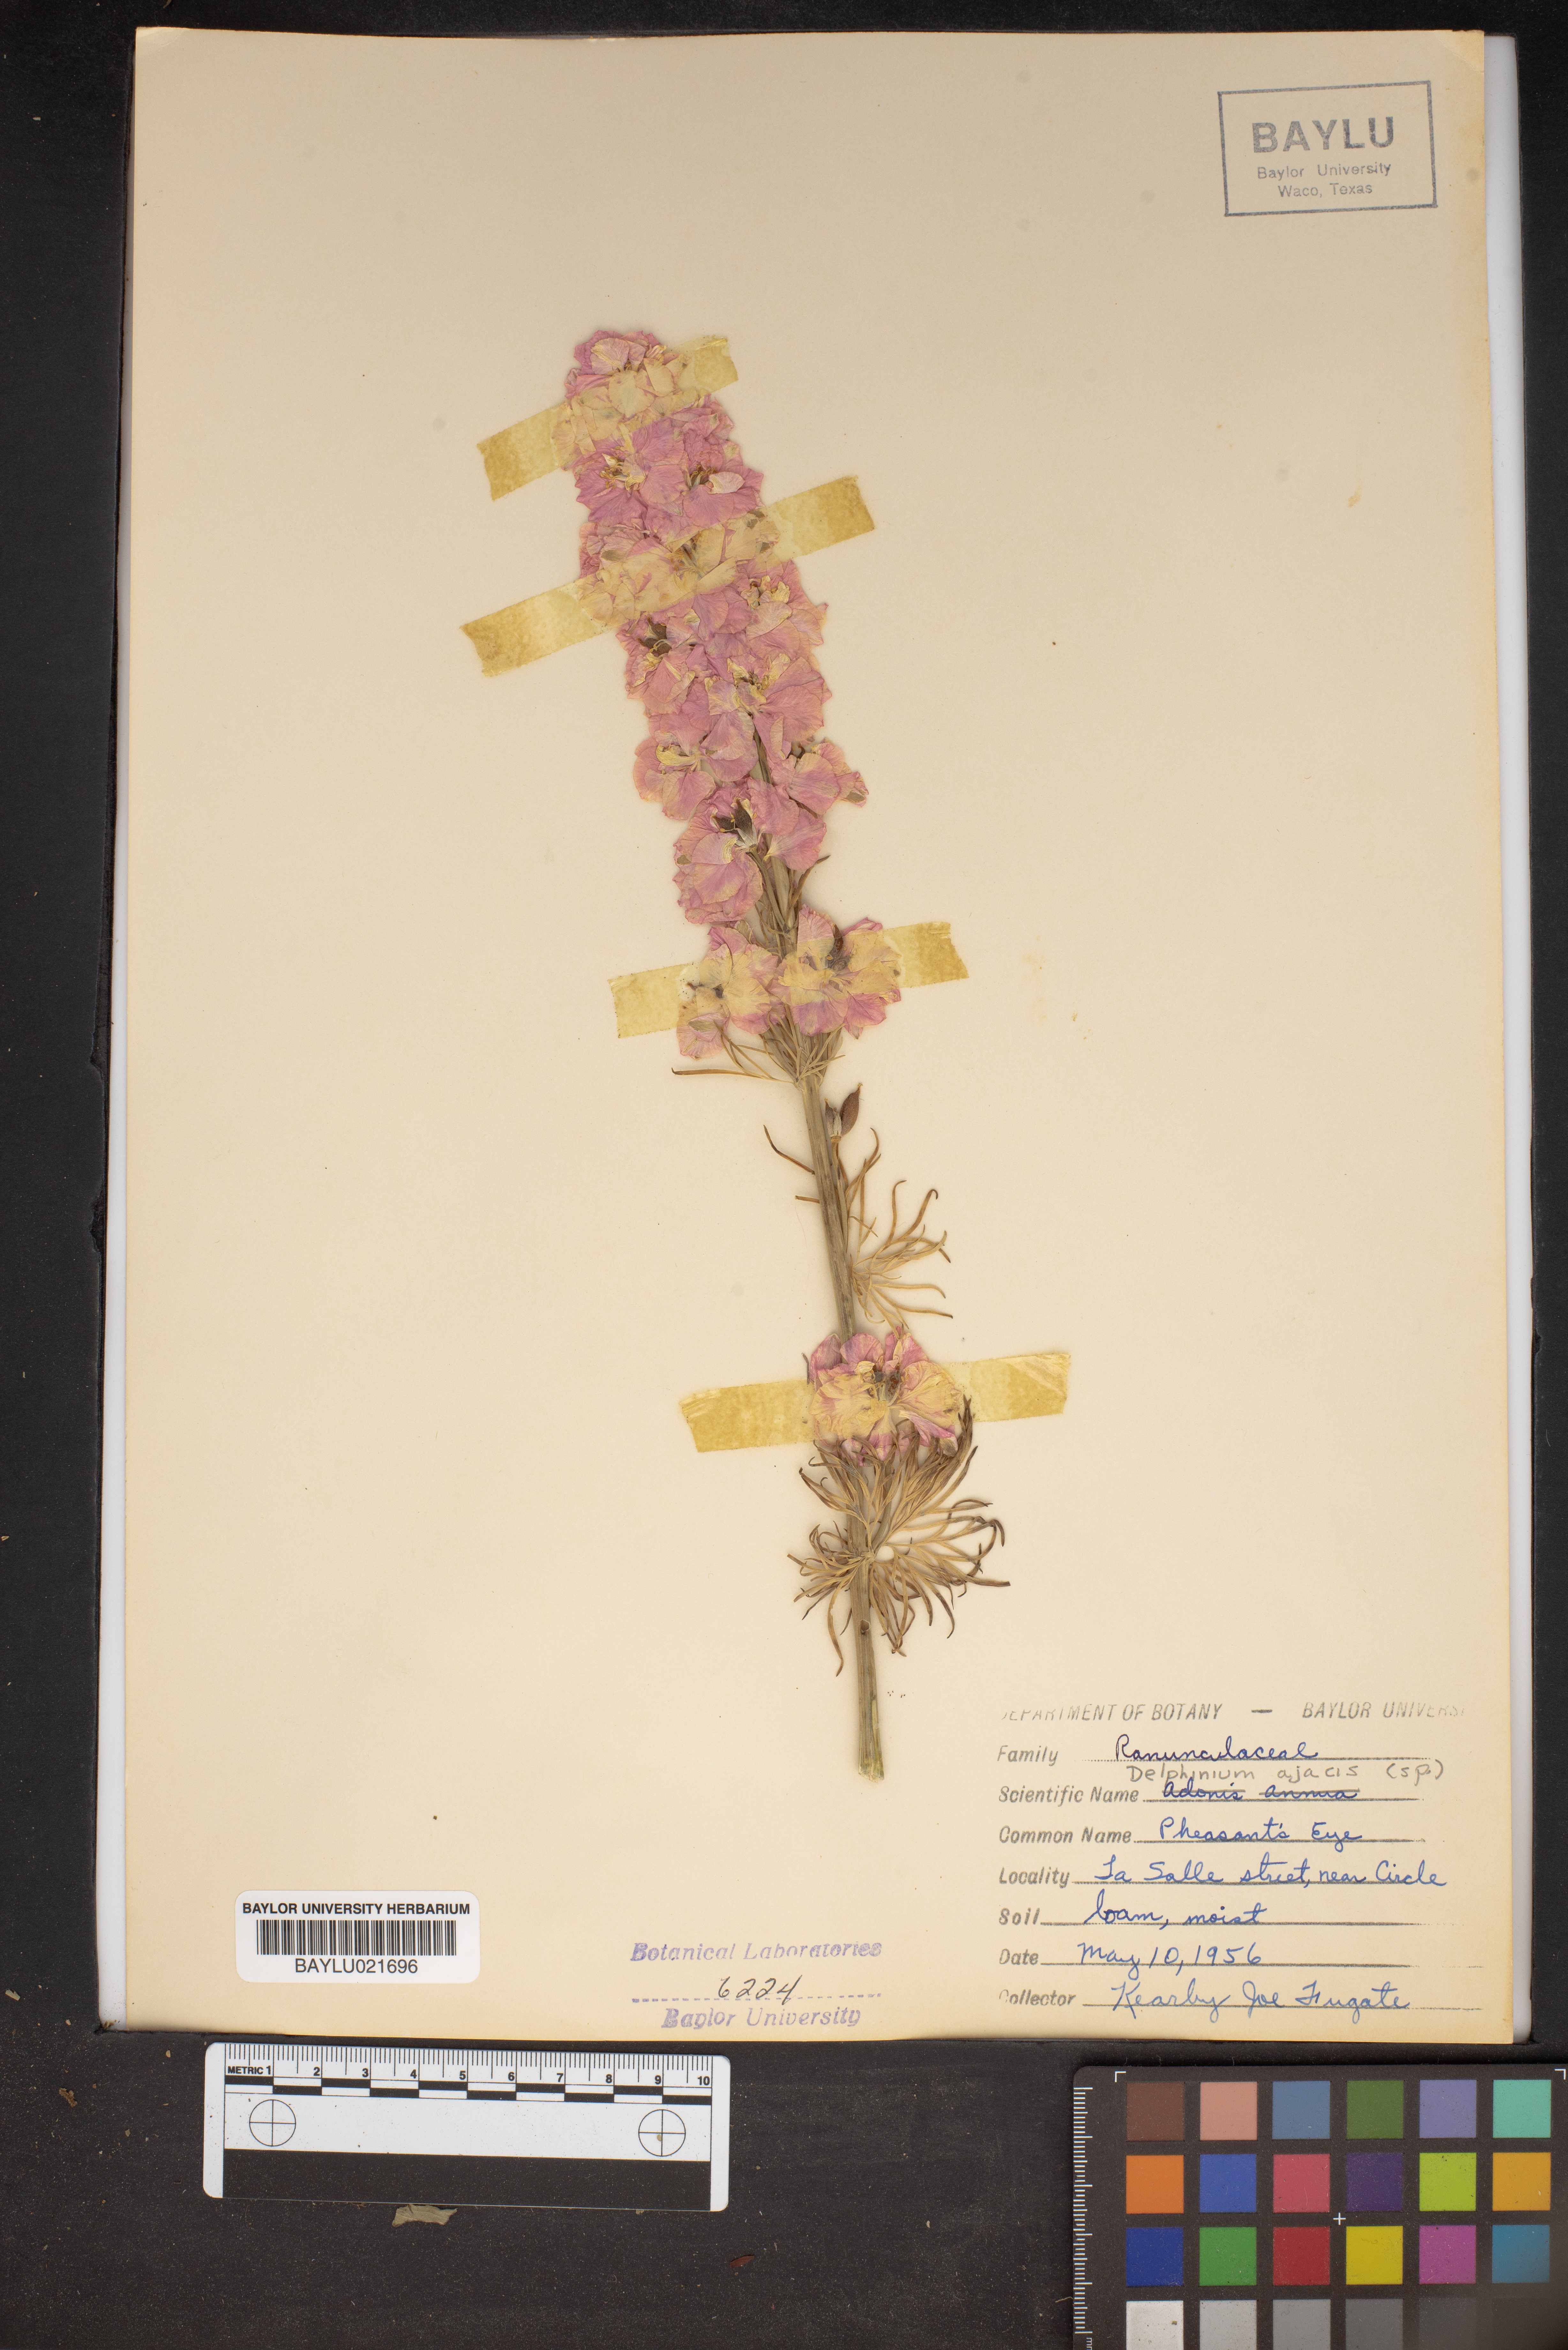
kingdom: Plantae
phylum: Tracheophyta
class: Magnoliopsida
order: Ranunculales
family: Ranunculaceae
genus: Delphinium
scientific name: Delphinium ajacis
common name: Doubtful knight's-spur
